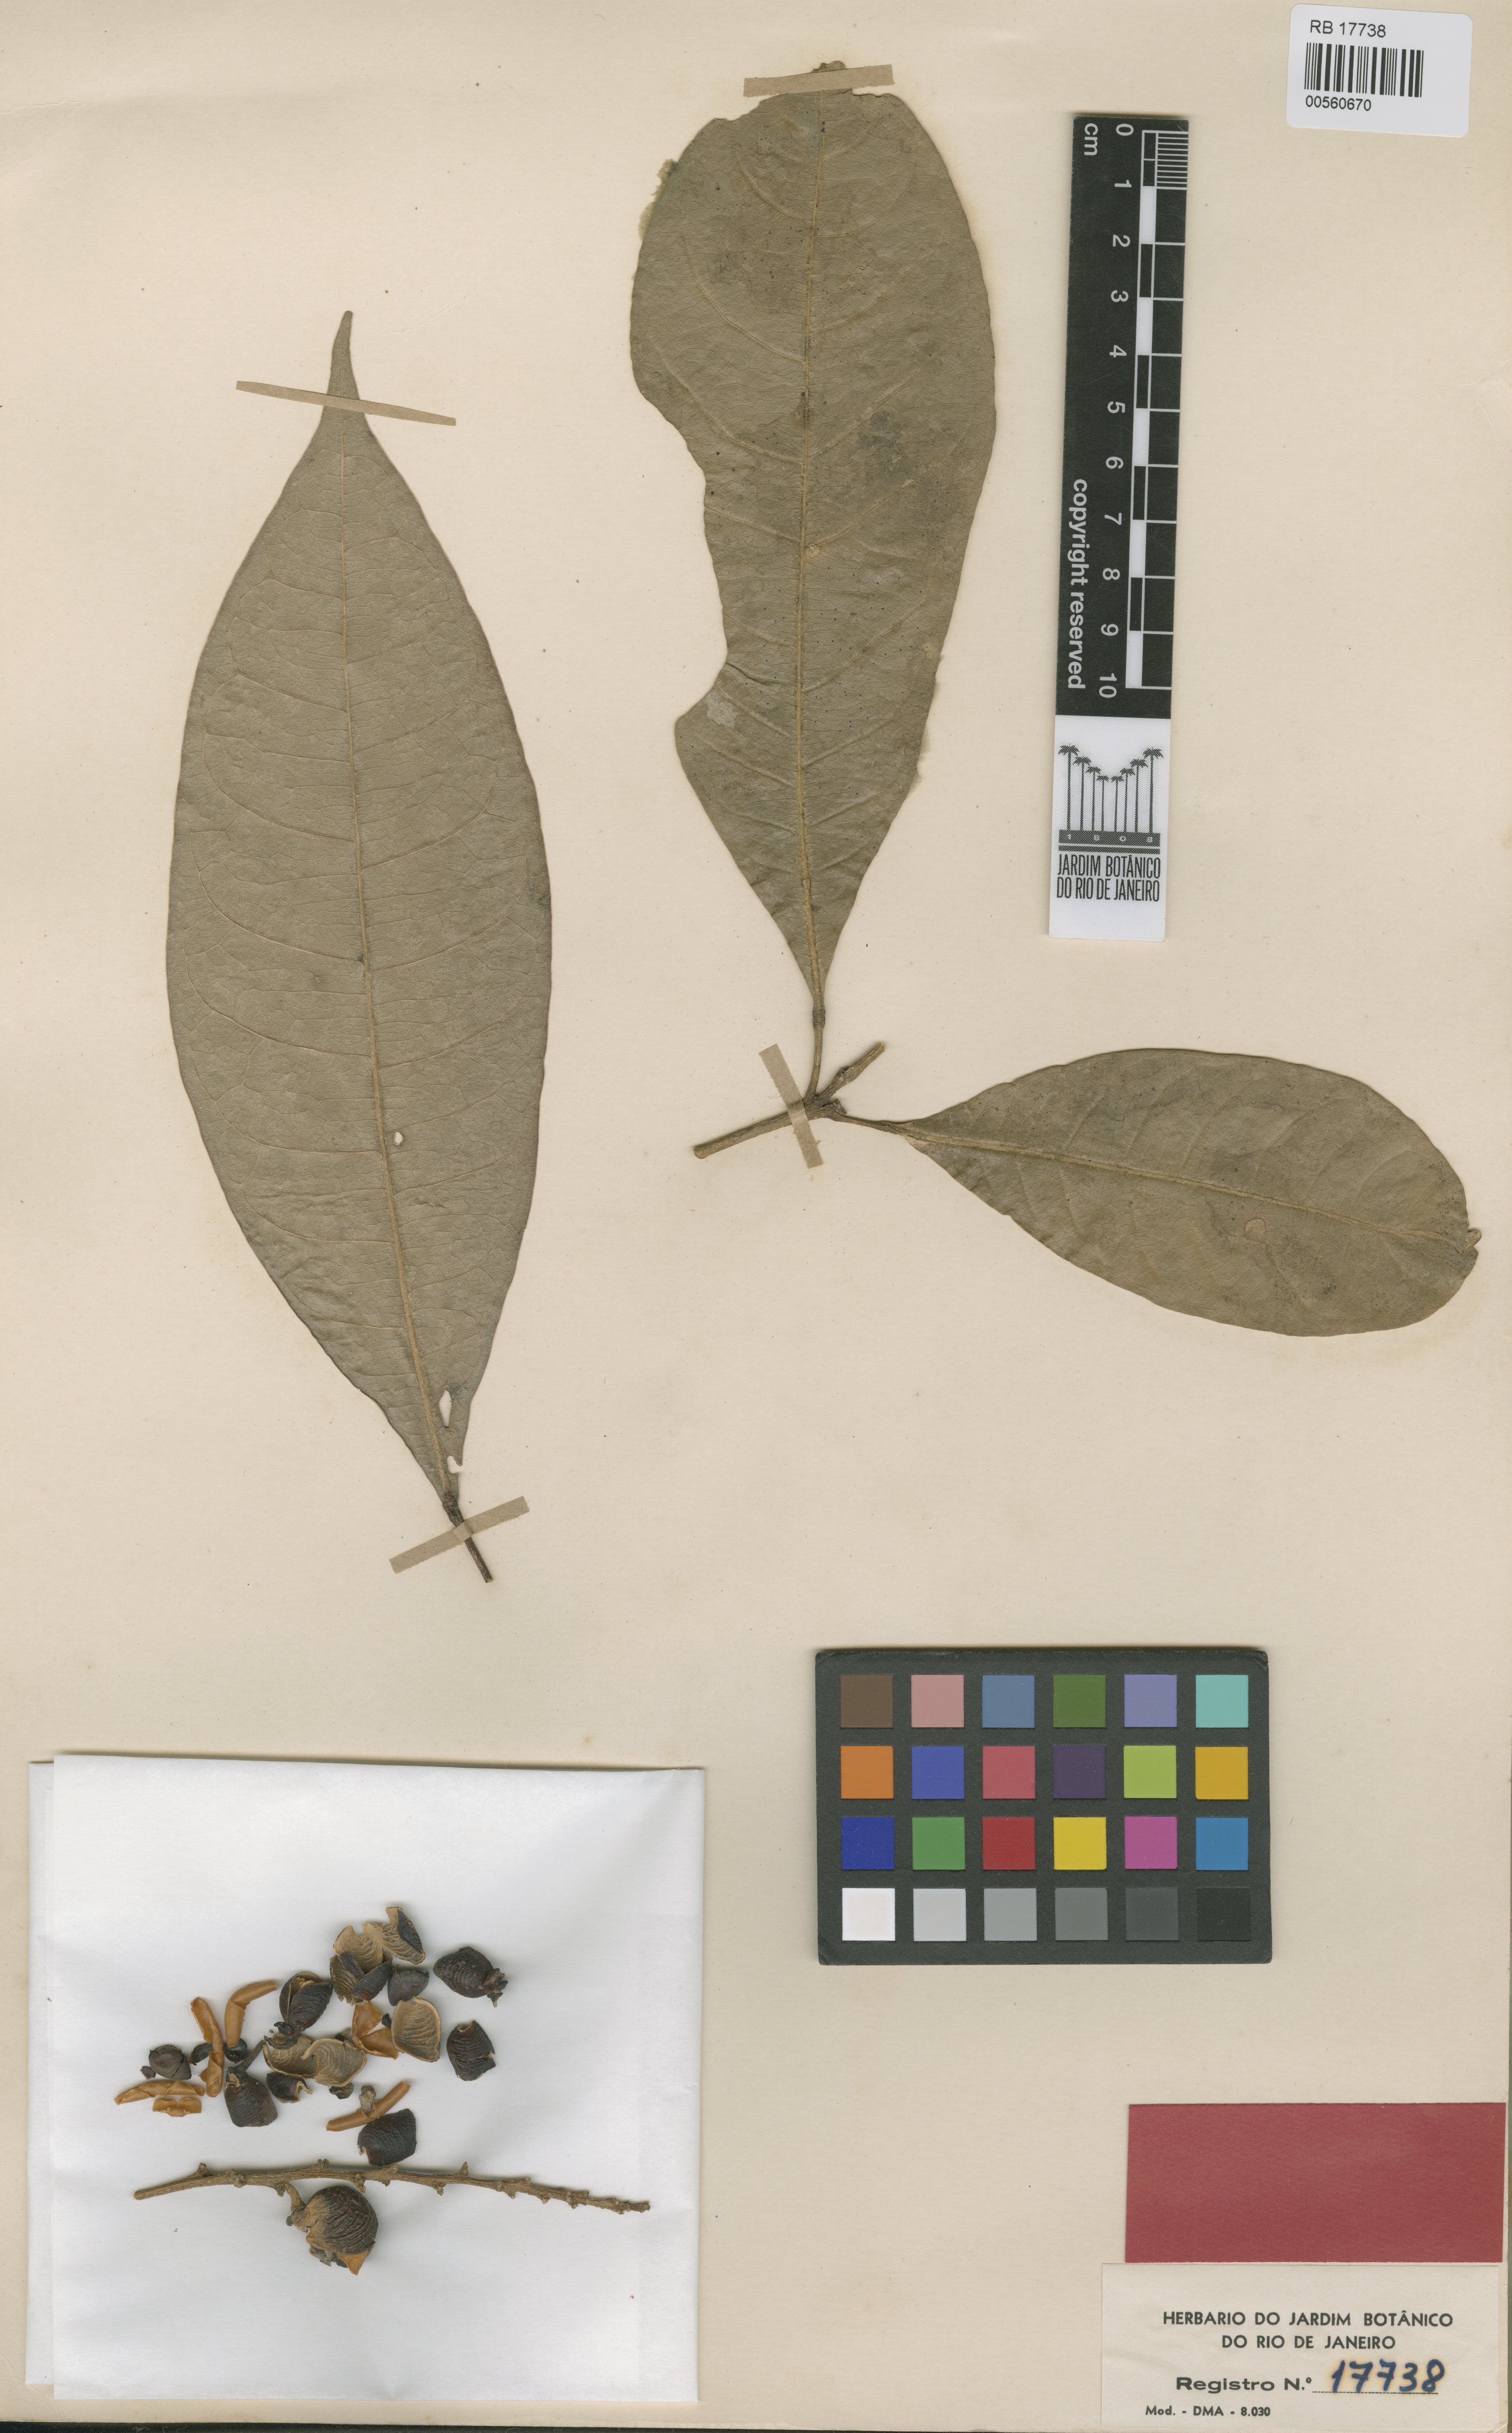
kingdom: Plantae
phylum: Tracheophyta
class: Magnoliopsida
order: Sapindales
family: Rutaceae
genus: Angostura
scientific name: Angostura tapajozensis
